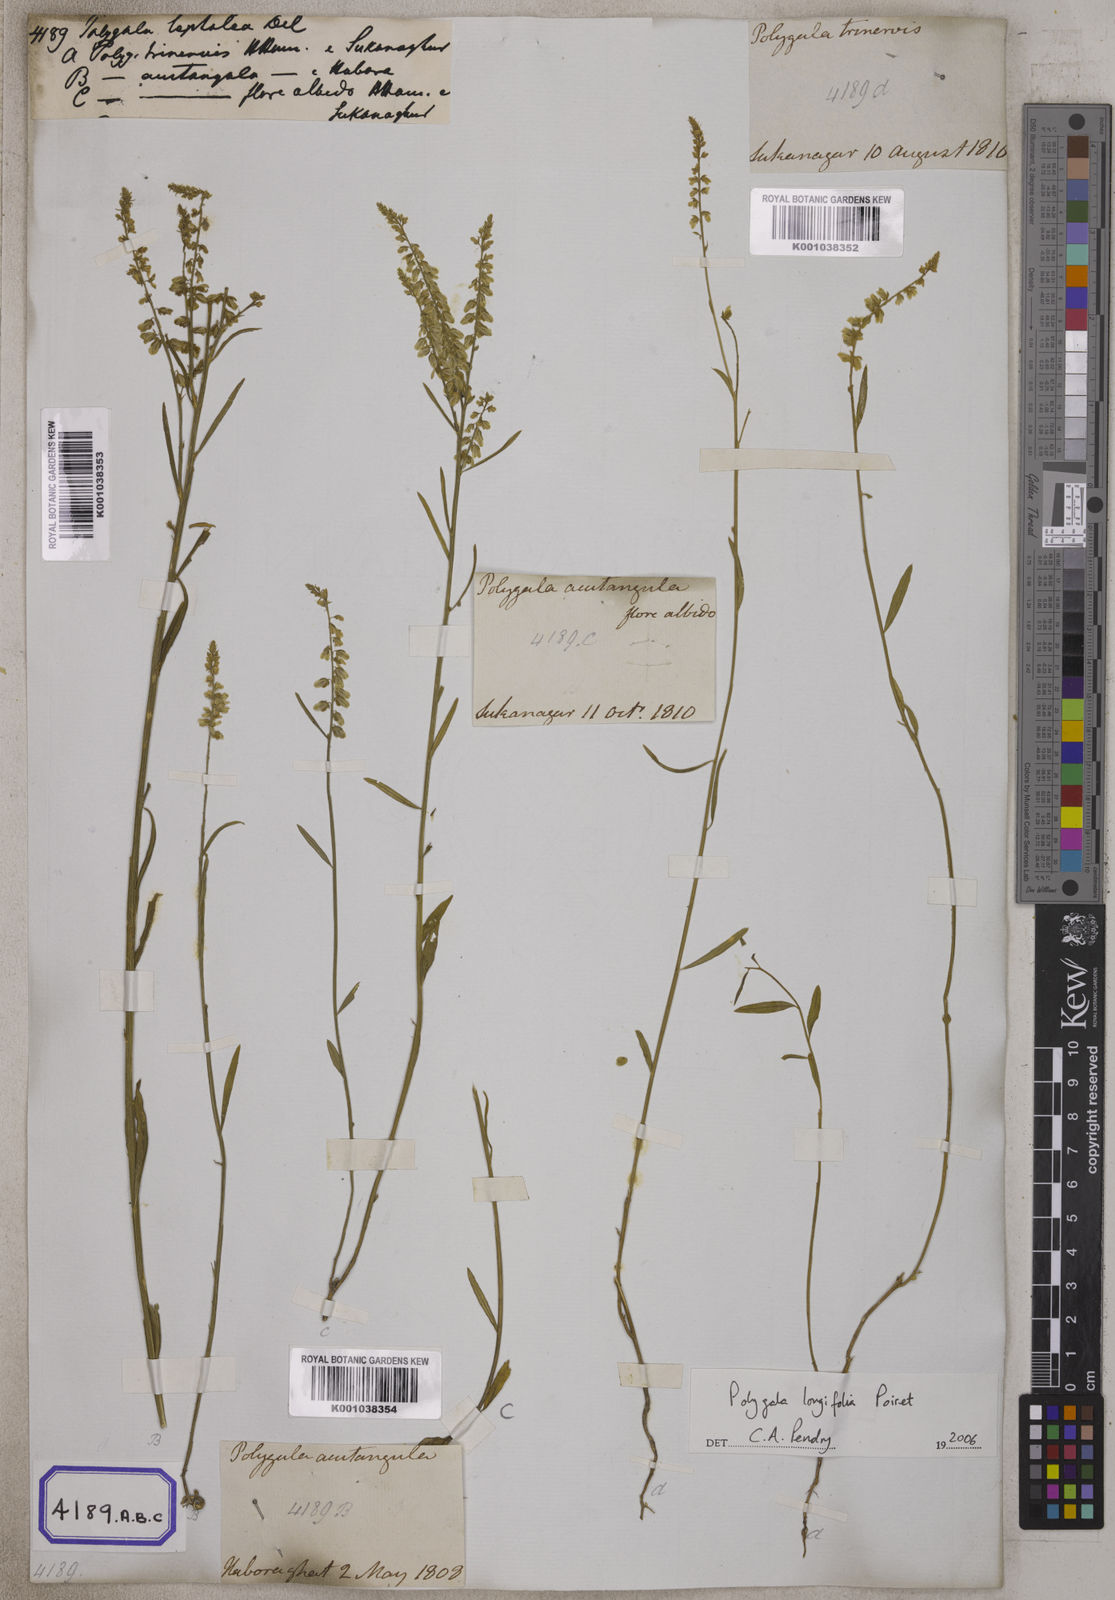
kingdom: Plantae
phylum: Tracheophyta
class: Magnoliopsida
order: Fabales
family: Polygalaceae
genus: Polygala
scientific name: Polygala longifolia
